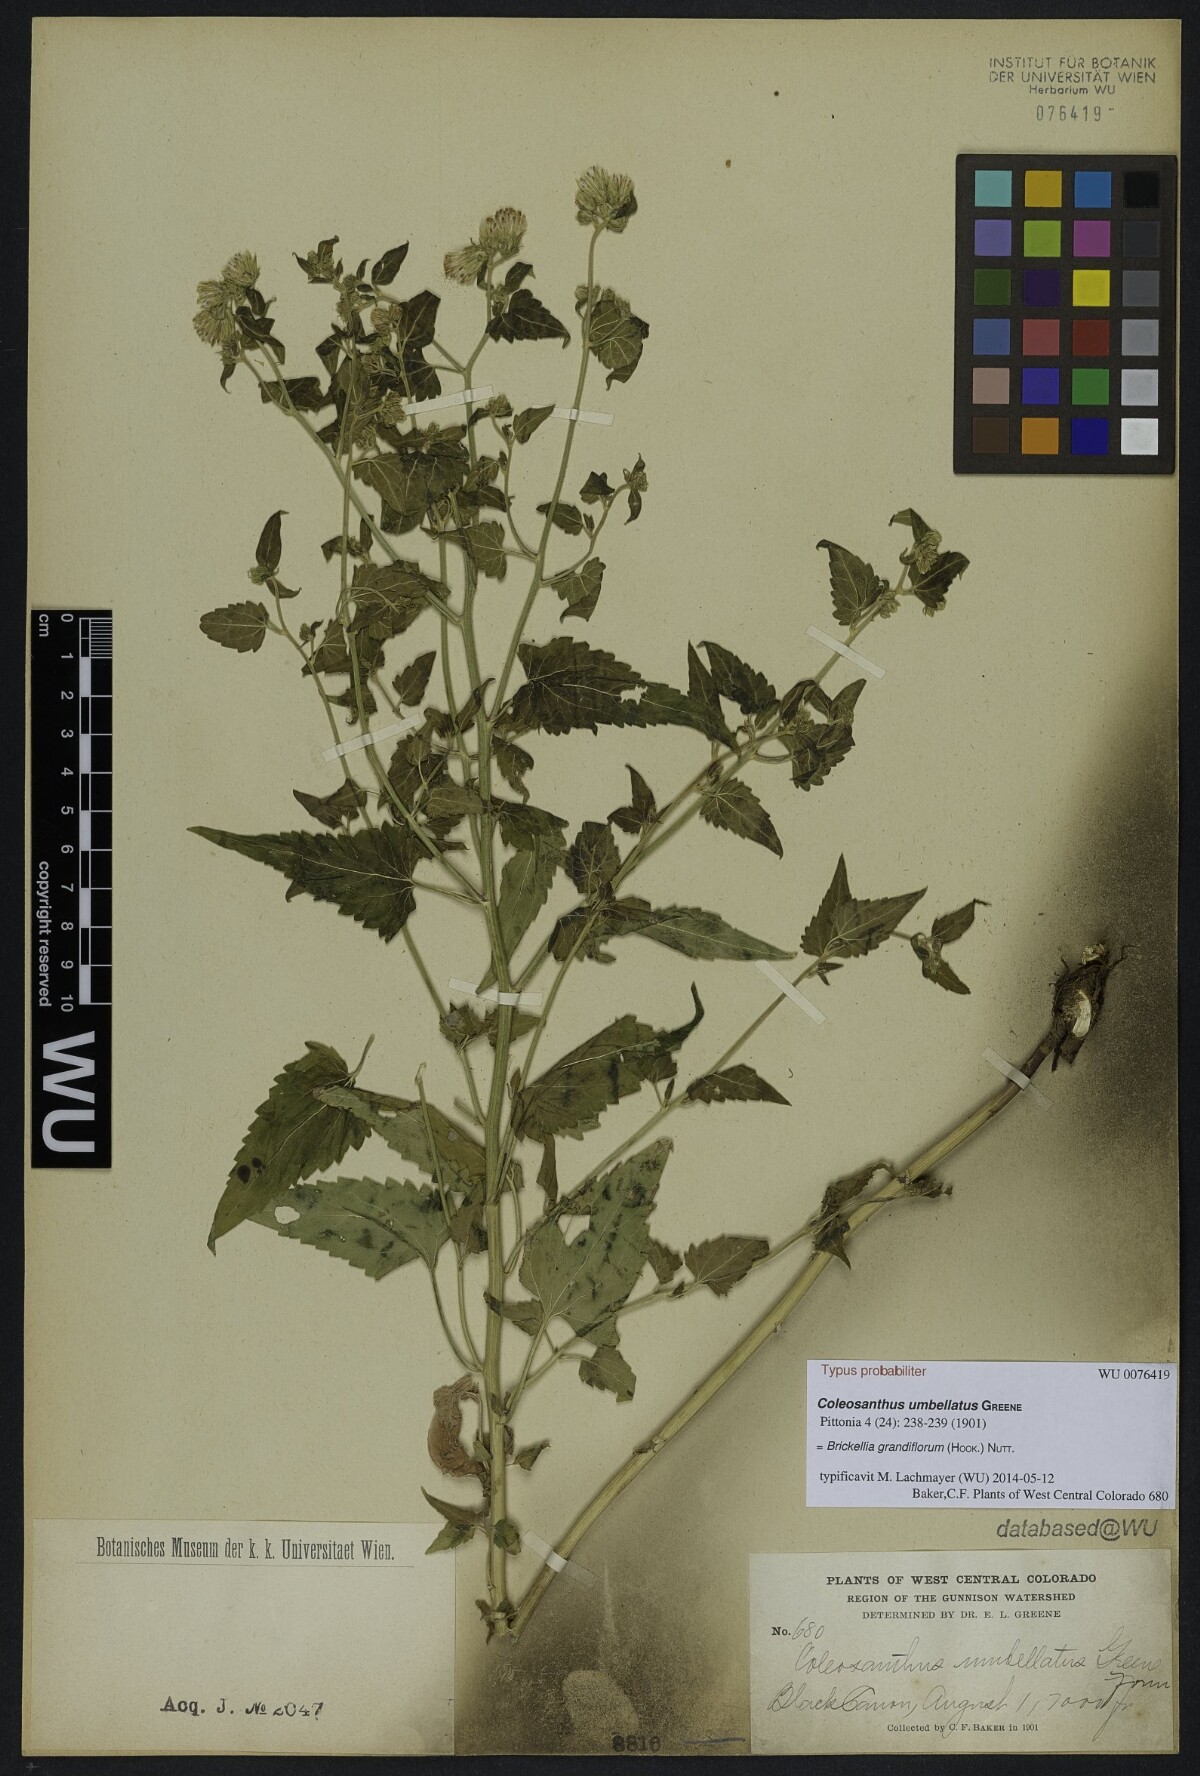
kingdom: Plantae
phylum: Tracheophyta
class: Magnoliopsida
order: Asterales
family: Asteraceae
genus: Brickellia
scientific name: Brickellia grandiflora
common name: Large-flowered brickellia
